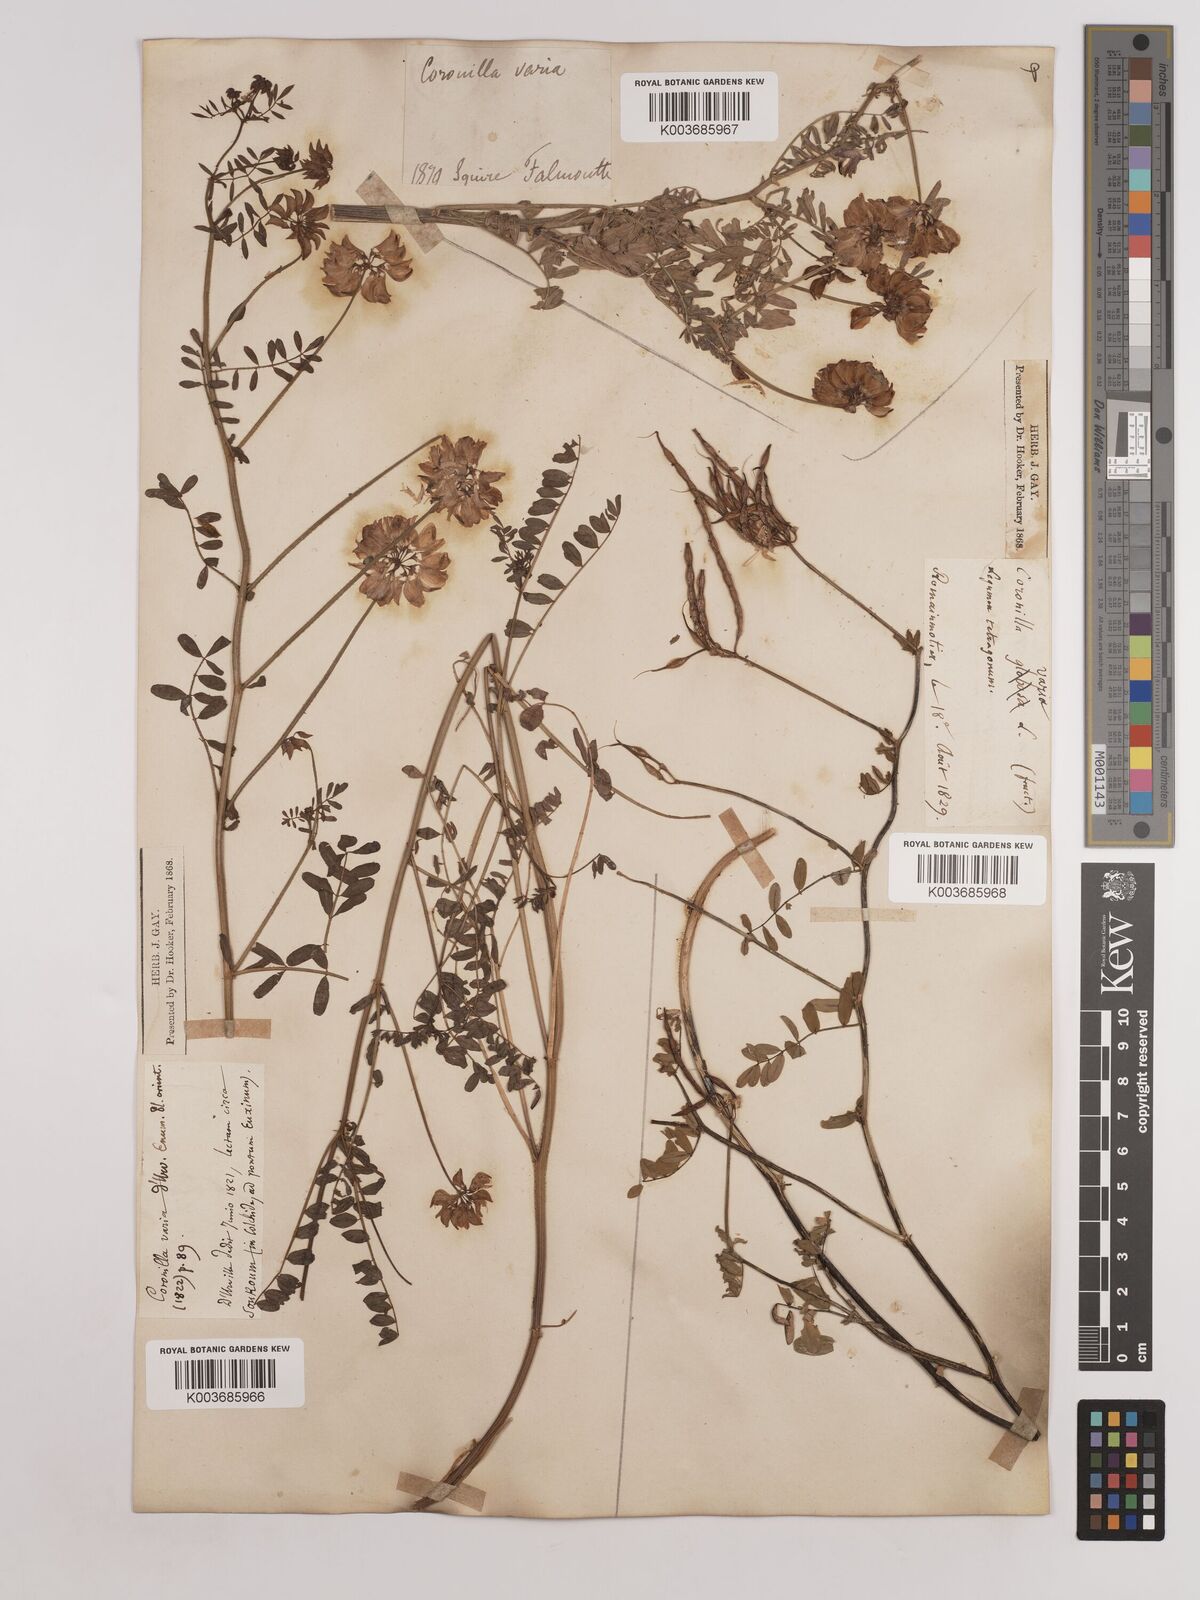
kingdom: Plantae
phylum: Tracheophyta
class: Magnoliopsida
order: Fabales
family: Fabaceae
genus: Coronilla
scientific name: Coronilla varia
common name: Crownvetch
